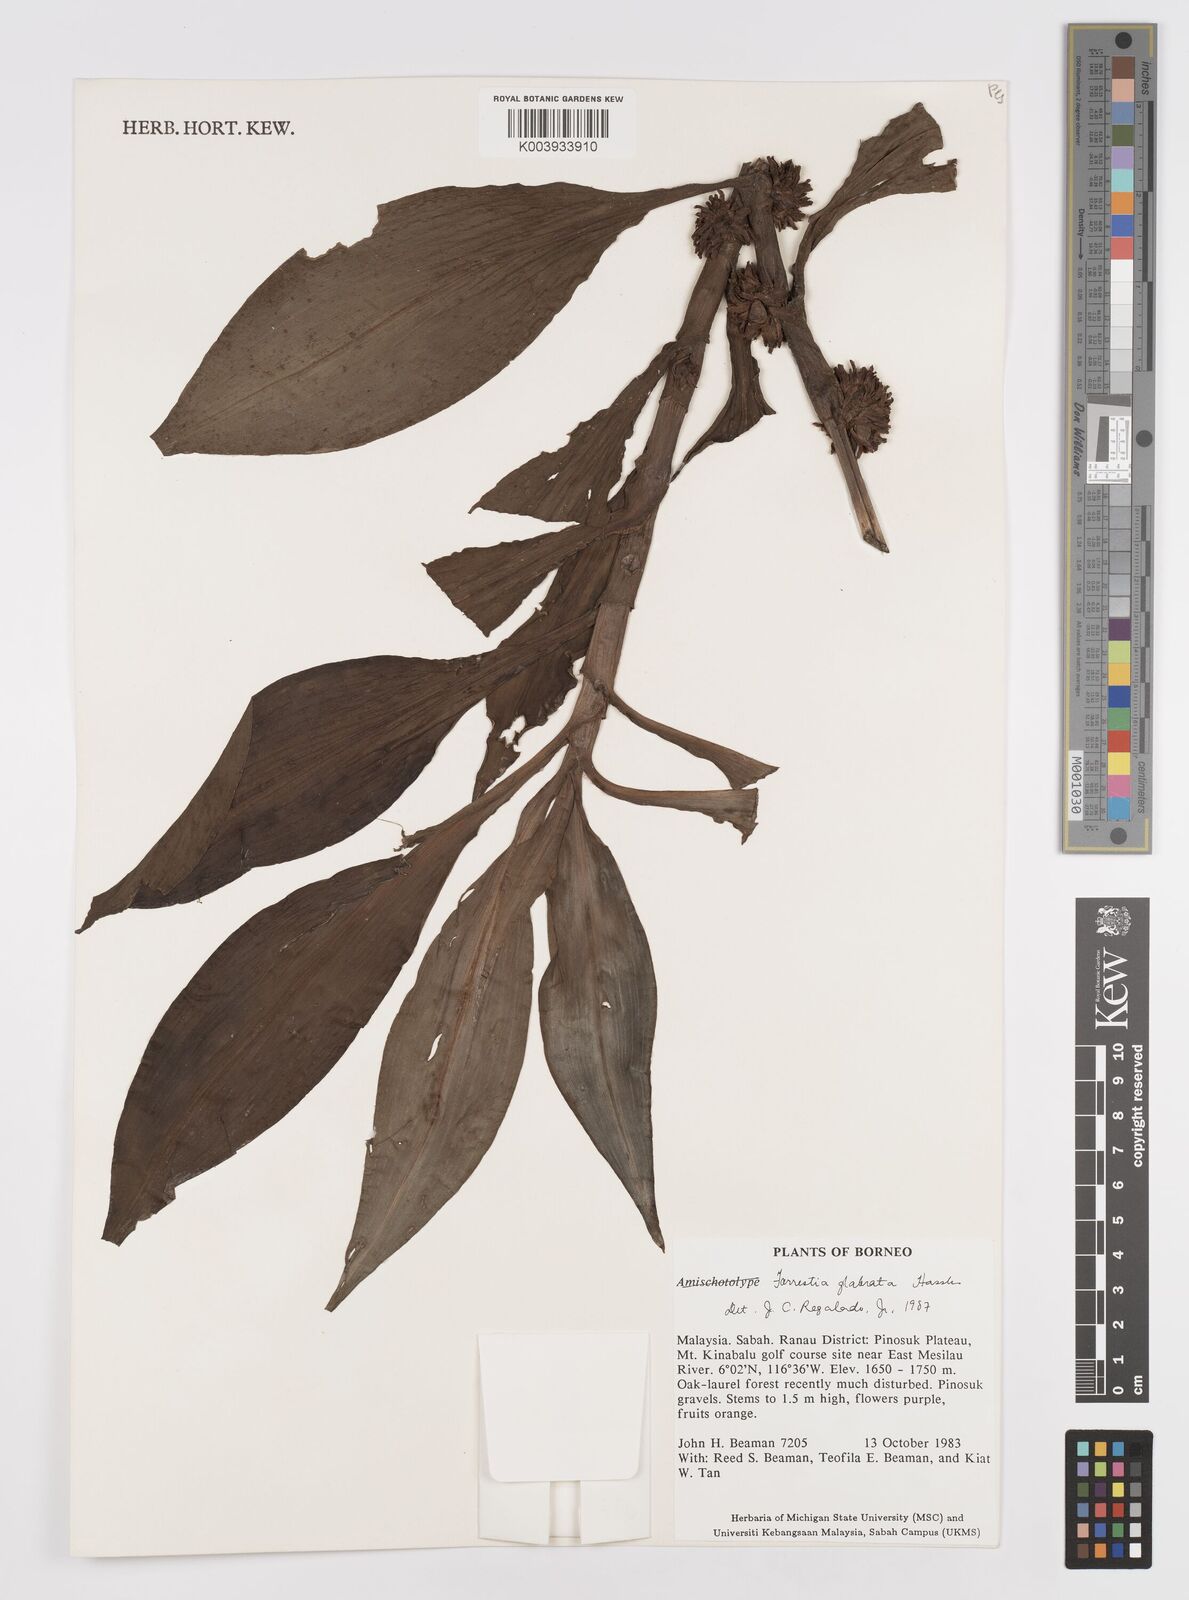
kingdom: Plantae
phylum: Tracheophyta
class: Liliopsida
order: Commelinales
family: Commelinaceae
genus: Amischotolype
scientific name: Amischotolype glabrata
